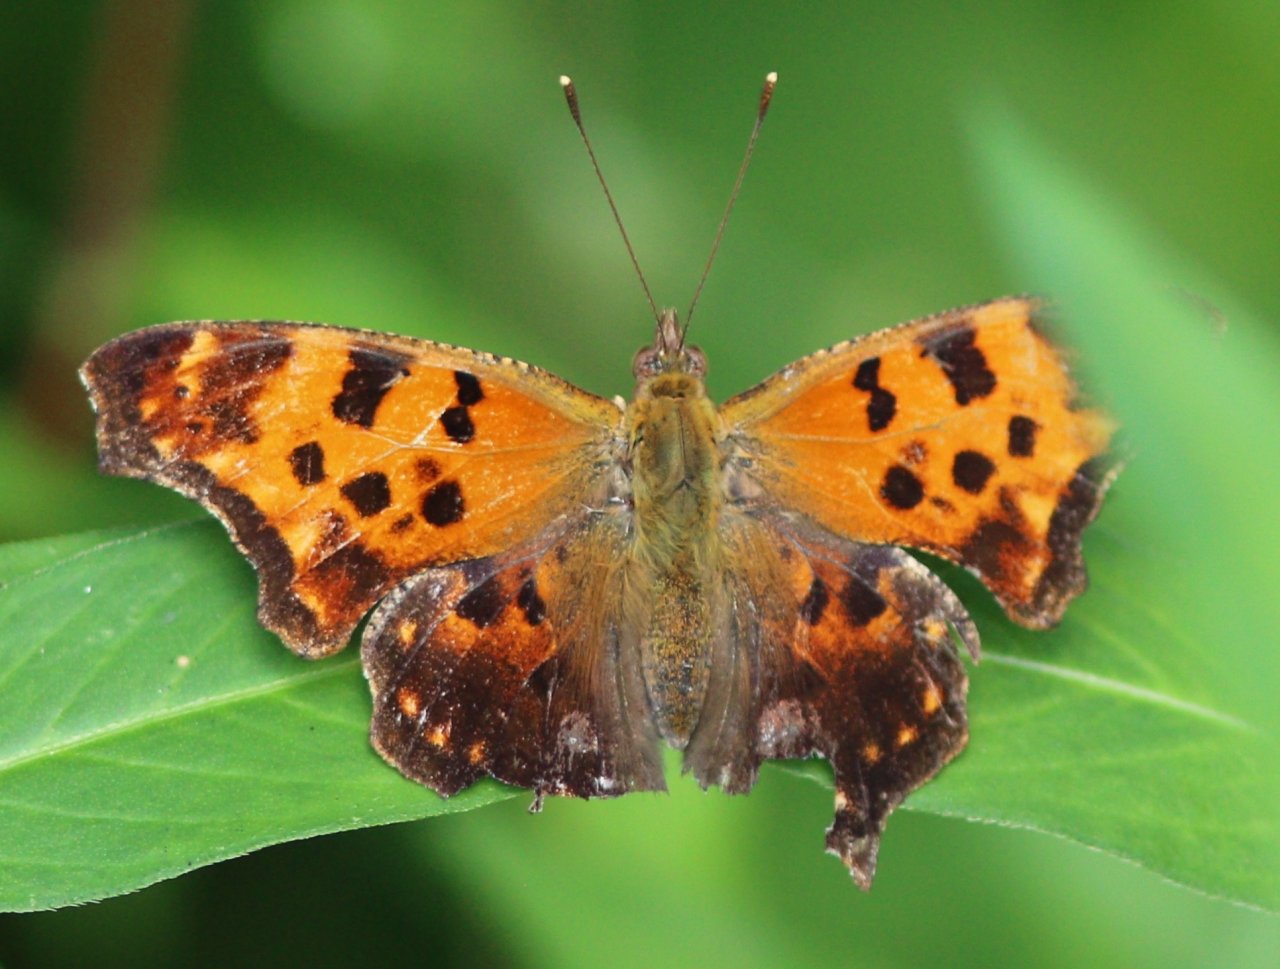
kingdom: Animalia
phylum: Arthropoda
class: Insecta
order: Lepidoptera
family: Nymphalidae
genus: Polygonia
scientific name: Polygonia comma
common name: Eastern Comma
